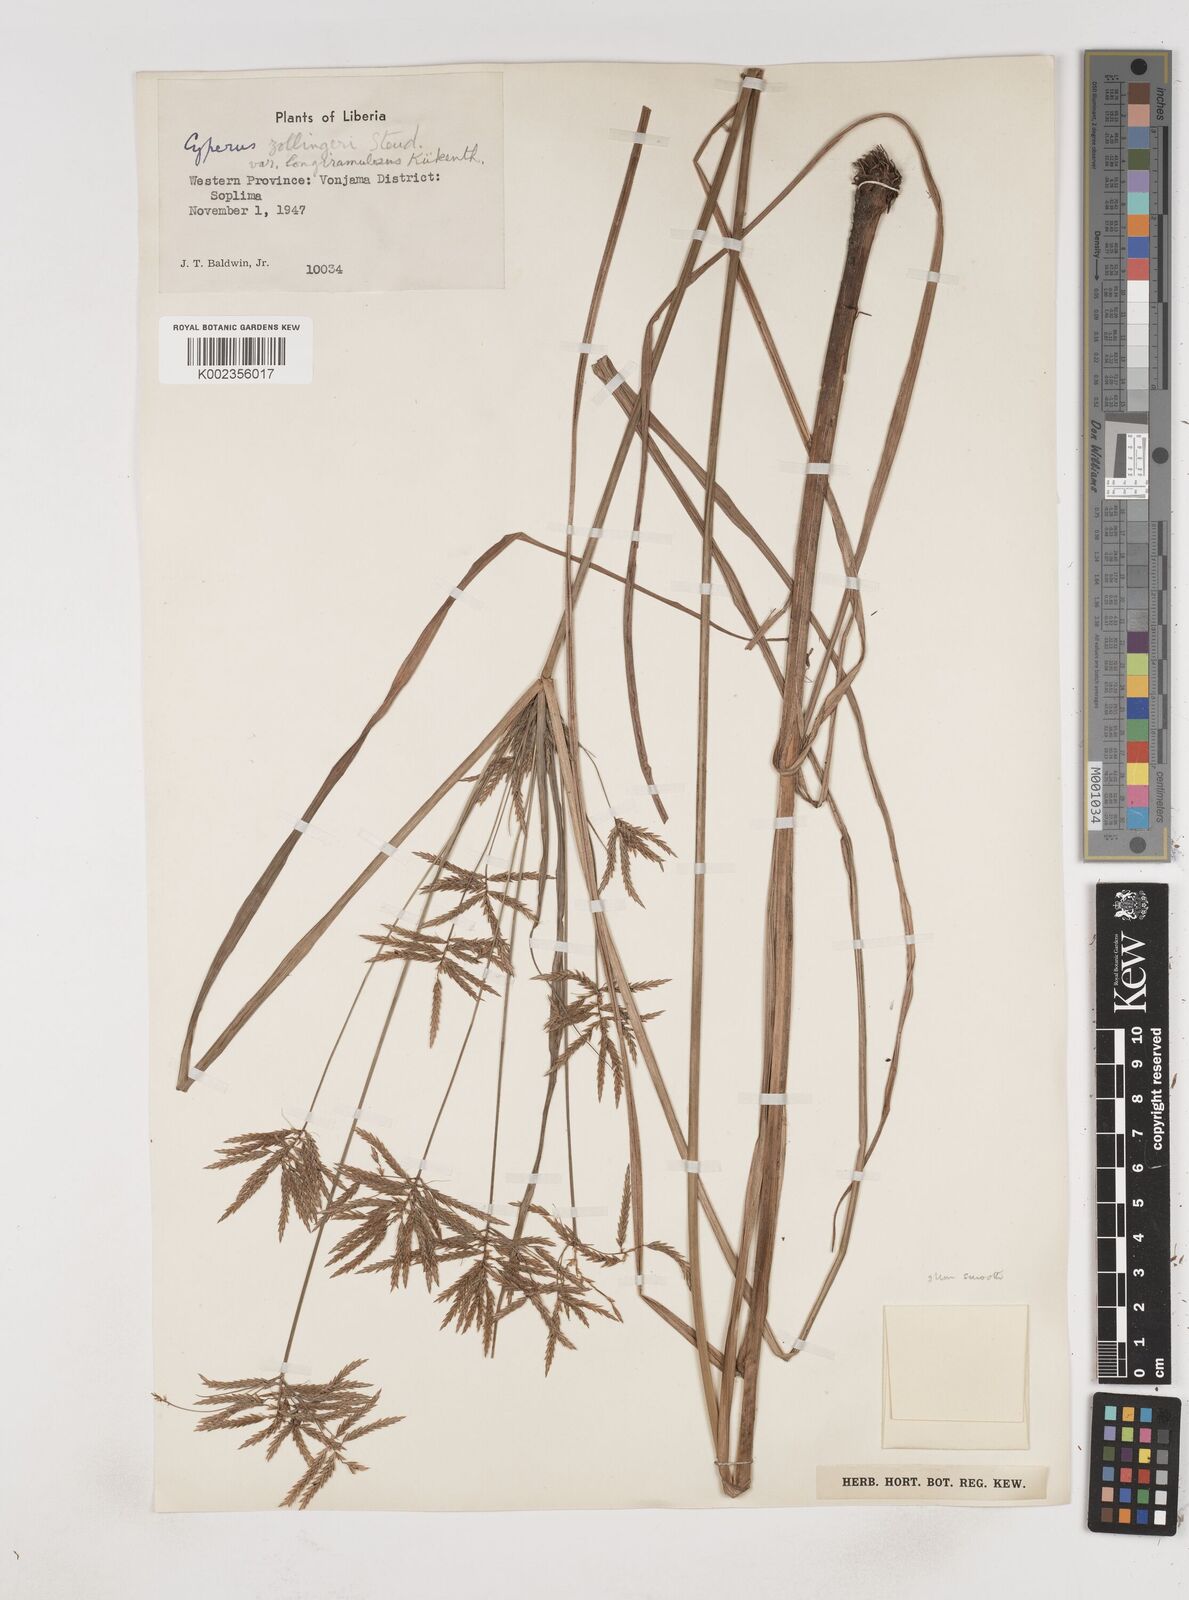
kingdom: Plantae
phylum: Tracheophyta
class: Liliopsida
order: Poales
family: Cyperaceae
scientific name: Cyperaceae
